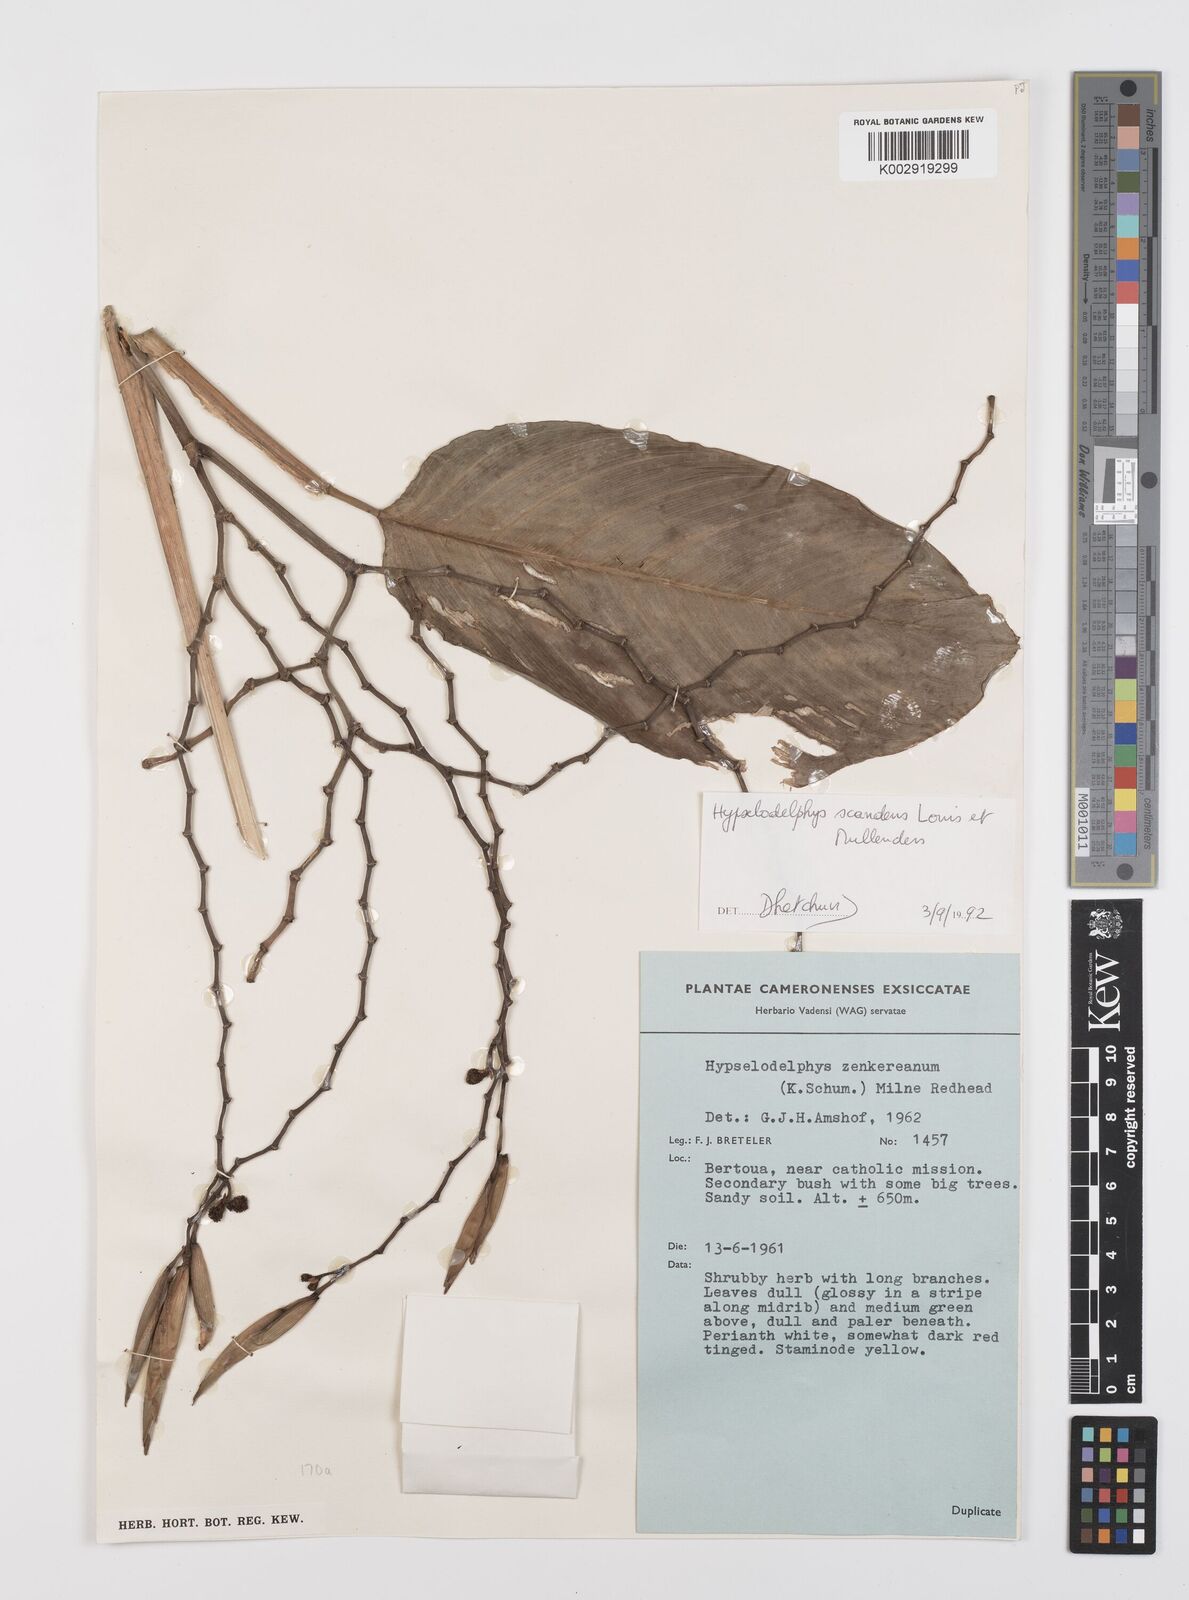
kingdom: Plantae
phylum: Tracheophyta
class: Liliopsida
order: Zingiberales
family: Marantaceae
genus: Hypselodelphys
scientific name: Hypselodelphys scandens
